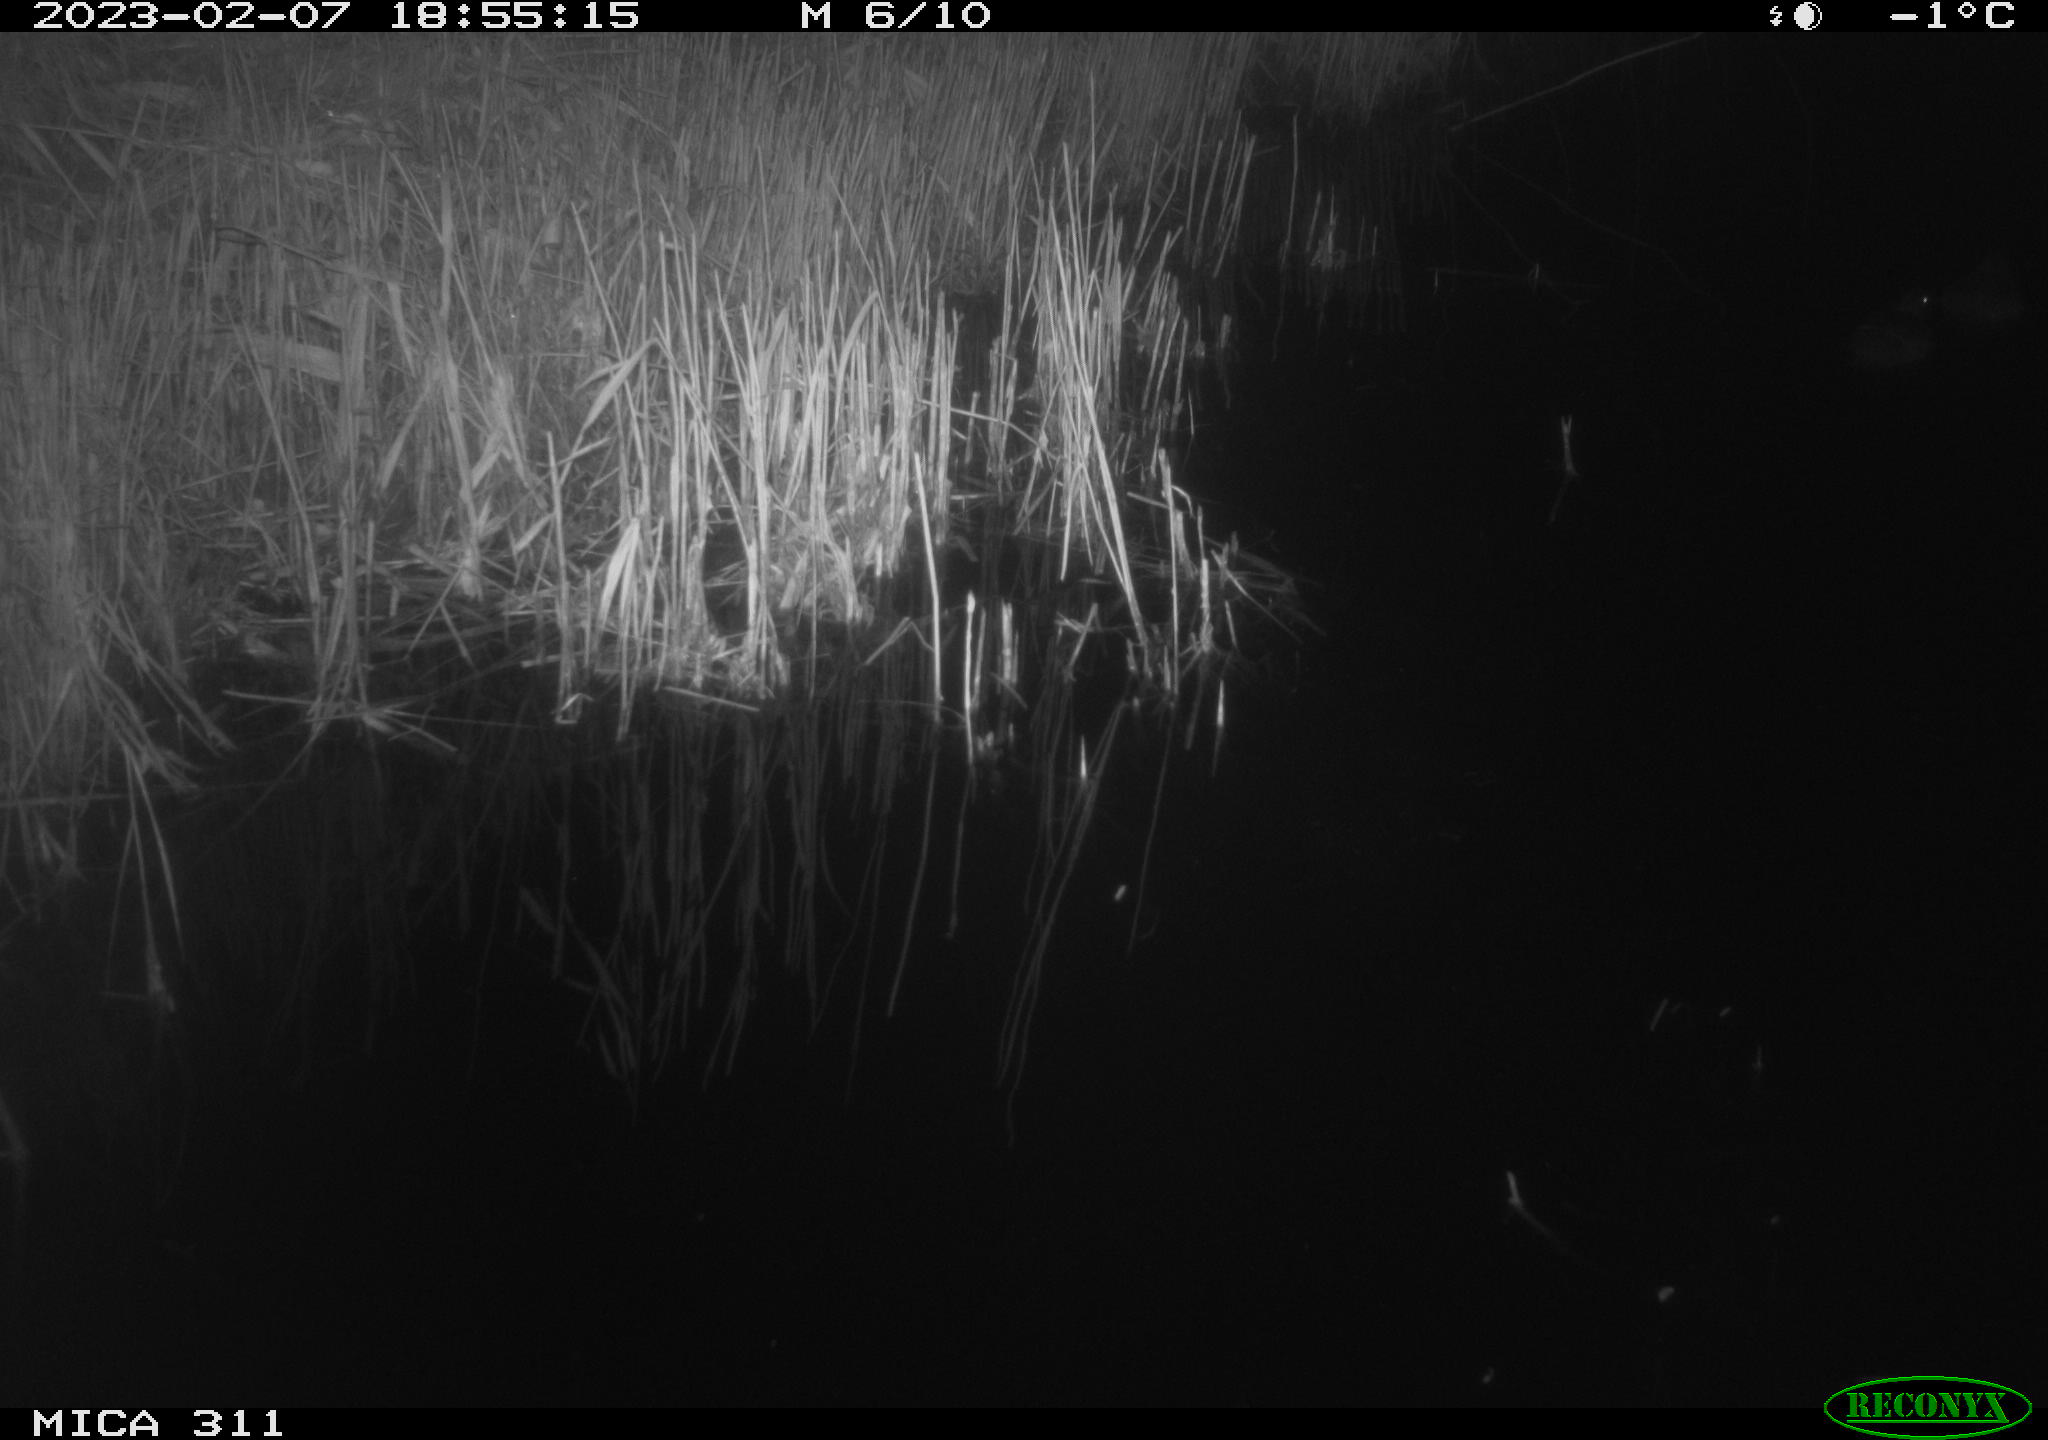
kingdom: Animalia
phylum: Chordata
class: Aves
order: Gruiformes
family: Rallidae
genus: Fulica
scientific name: Fulica atra
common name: Eurasian coot
